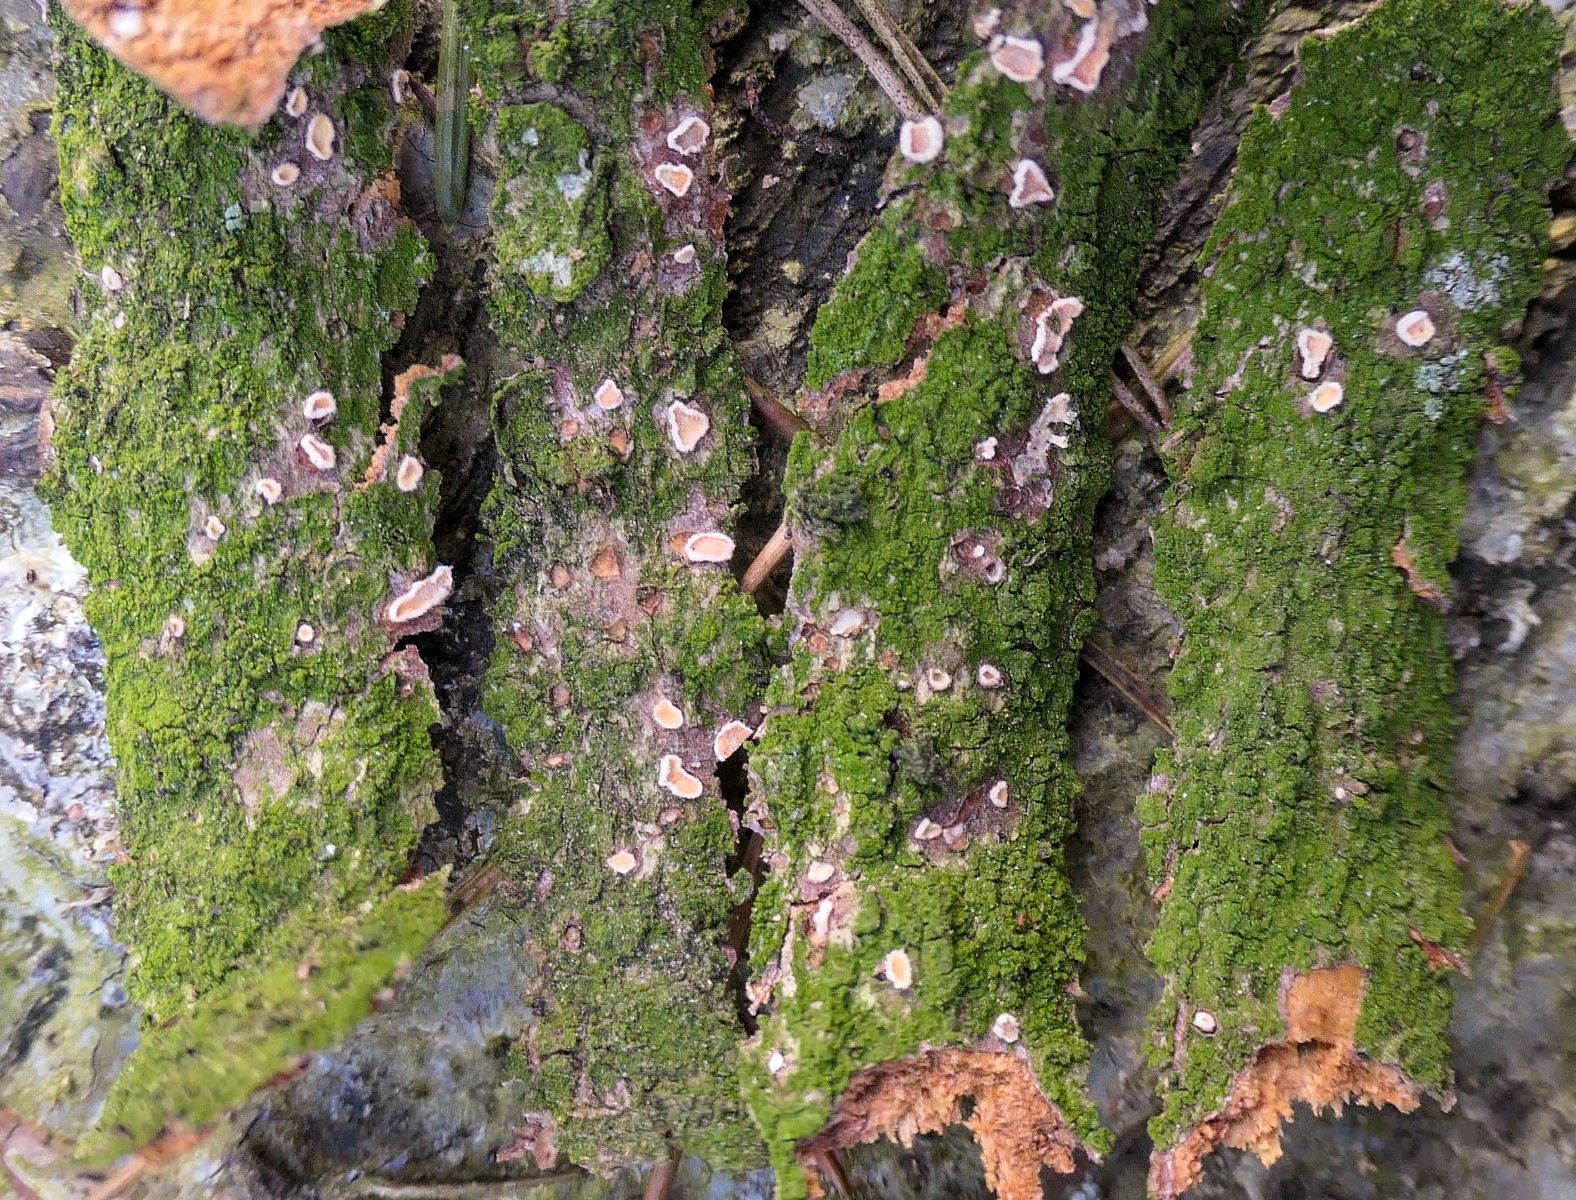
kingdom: Fungi
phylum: Basidiomycota
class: Agaricomycetes
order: Russulales
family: Stereaceae
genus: Aleurodiscus
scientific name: Aleurodiscus amorphus
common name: orange skiveskorpe
